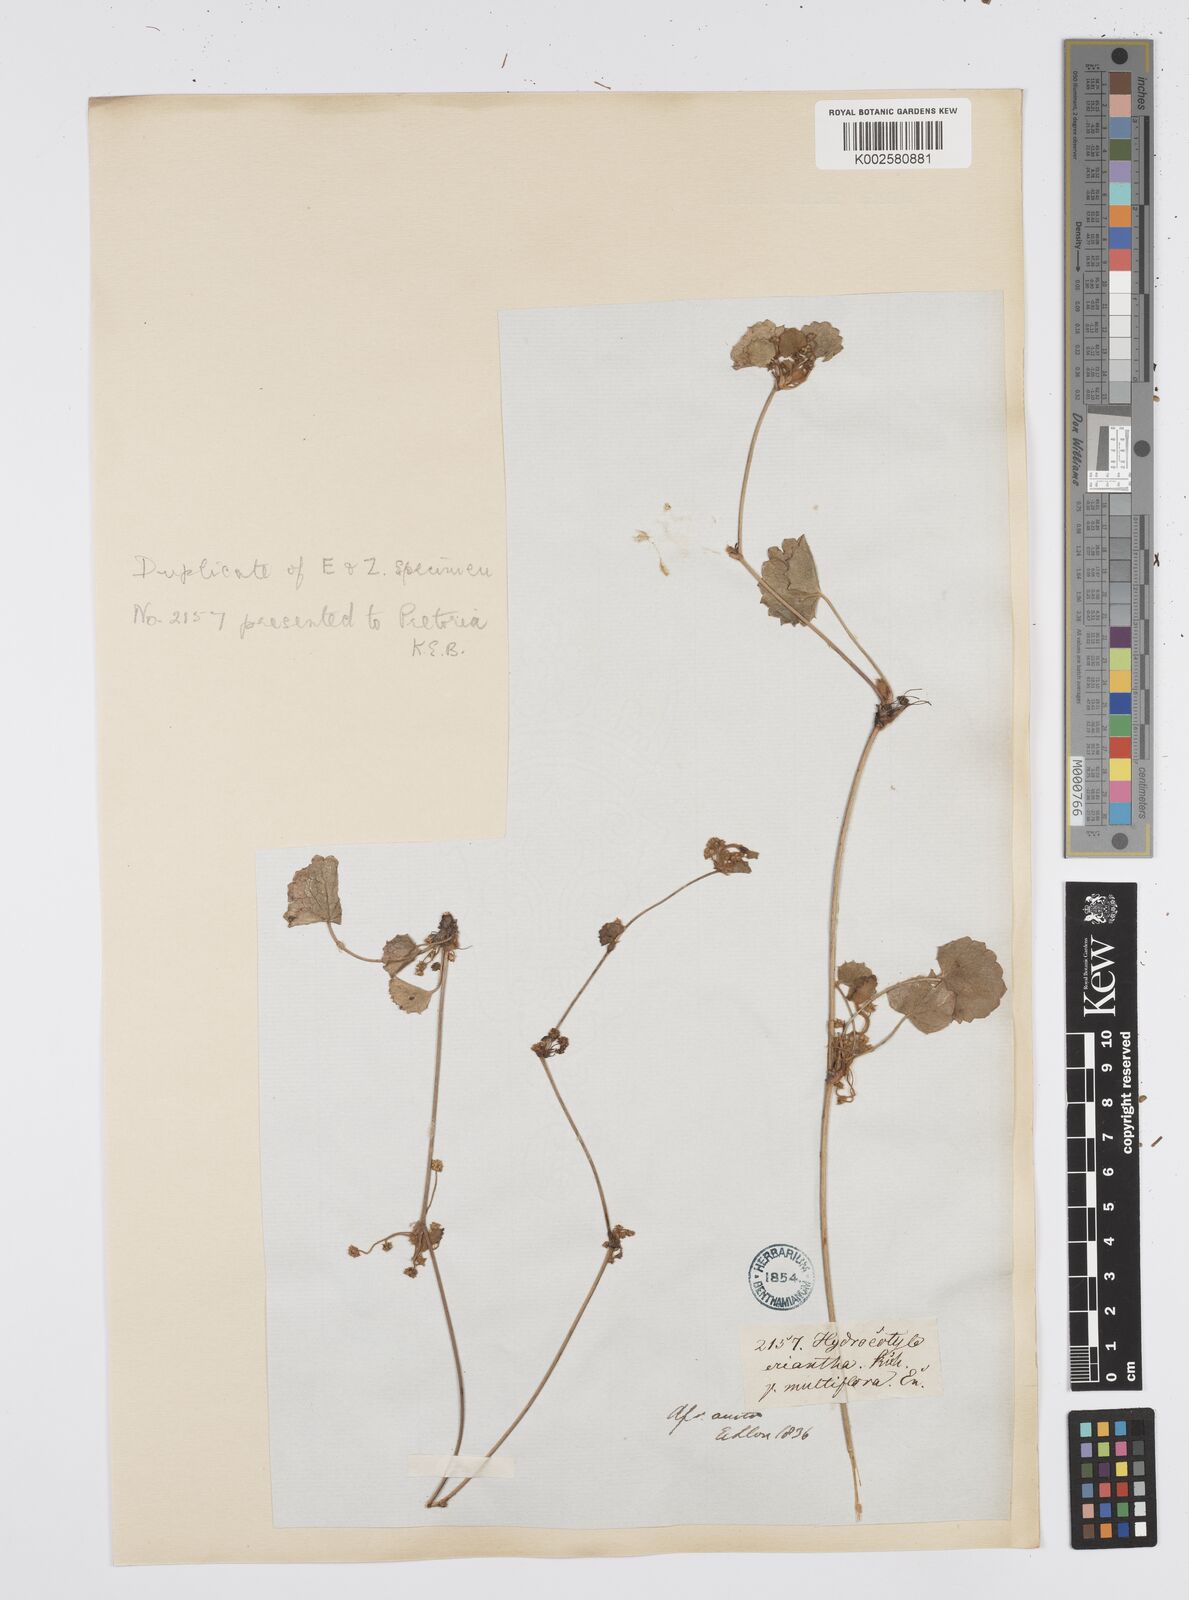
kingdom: Plantae
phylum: Tracheophyta
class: Magnoliopsida
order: Apiales
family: Apiaceae
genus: Centella
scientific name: Centella eriantha
